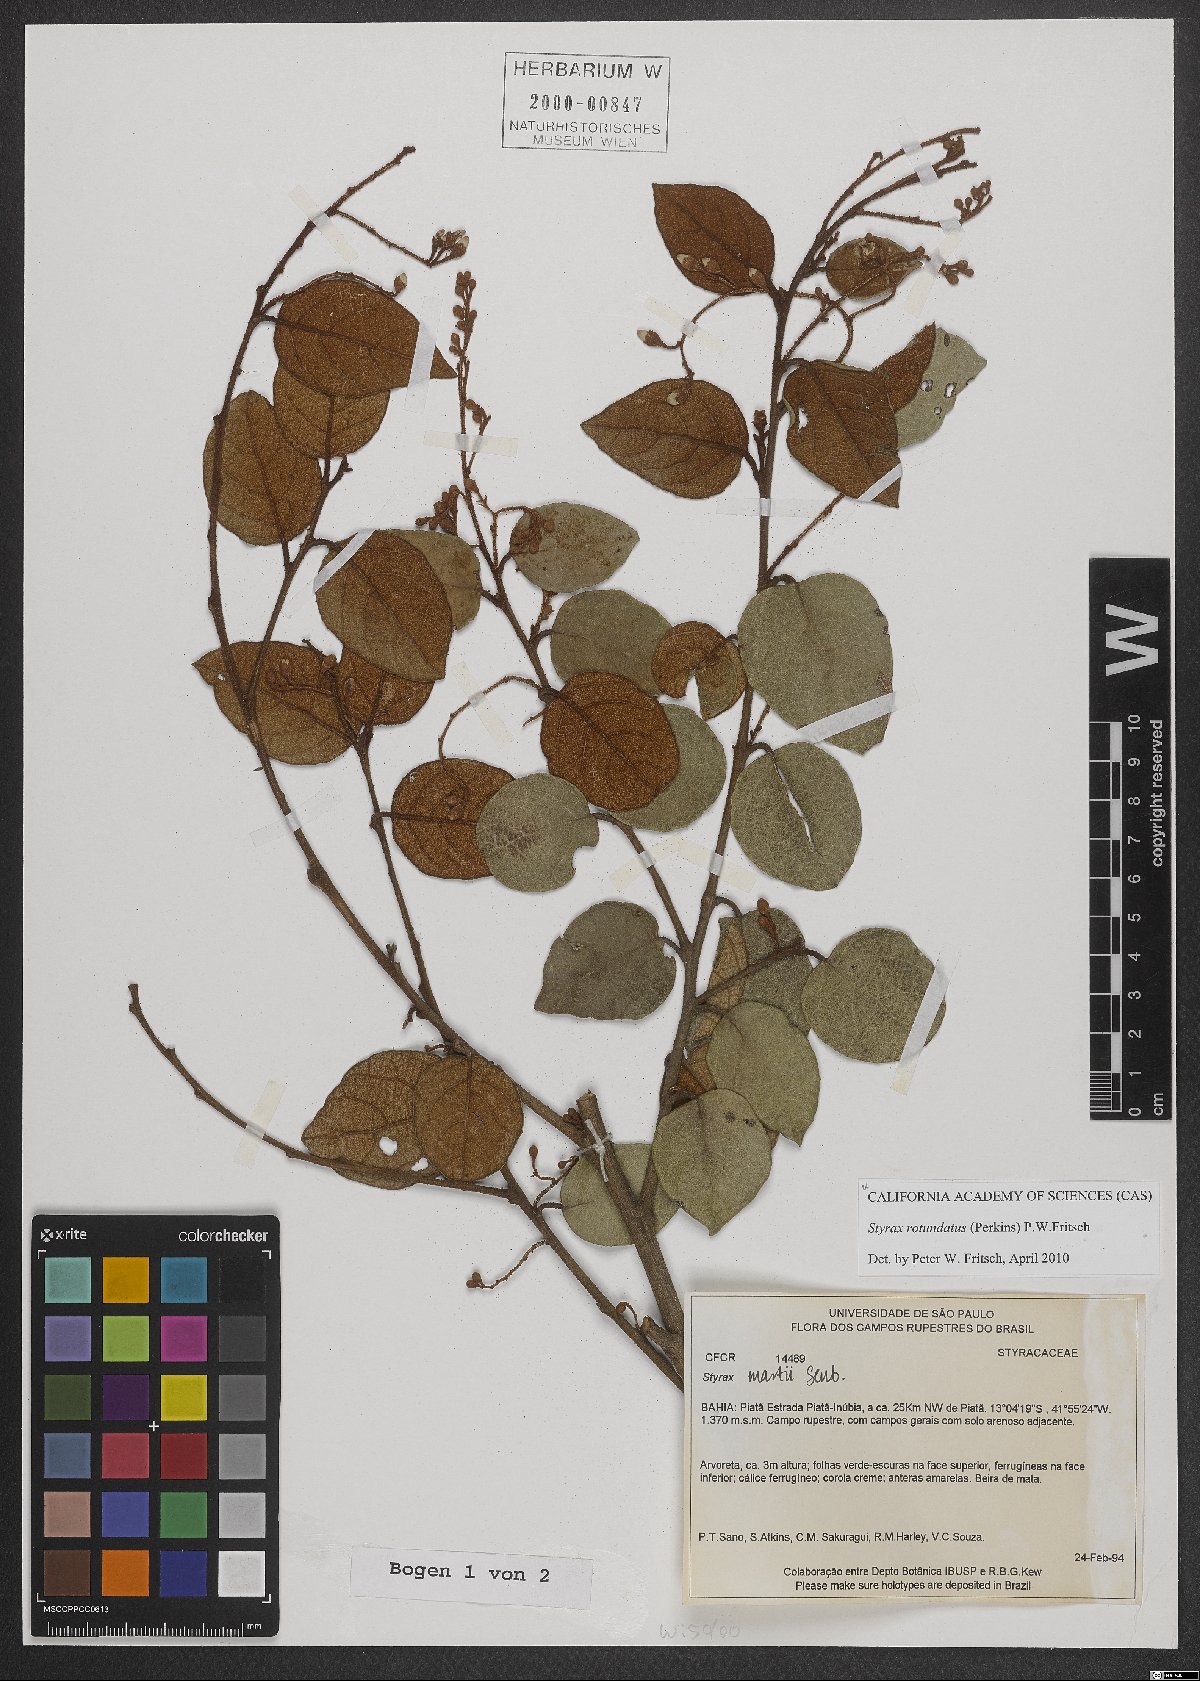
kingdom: Plantae
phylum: Tracheophyta
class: Magnoliopsida
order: Ericales
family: Styracaceae
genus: Styrax
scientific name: Styrax rotundatus
